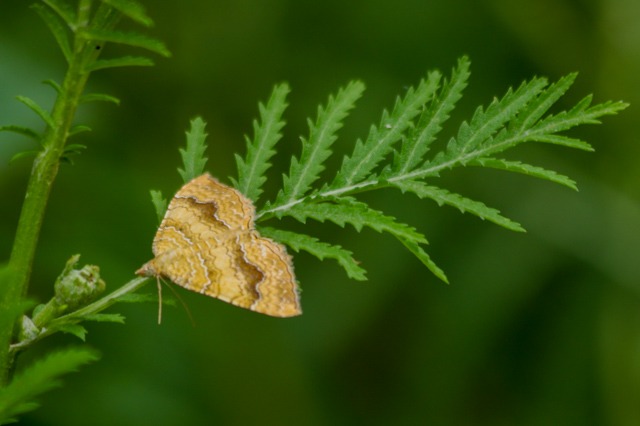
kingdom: Animalia
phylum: Arthropoda
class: Insecta
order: Lepidoptera
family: Geometridae
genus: Camptogramma
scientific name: Camptogramma bilineata
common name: Okkergul bladmåler
